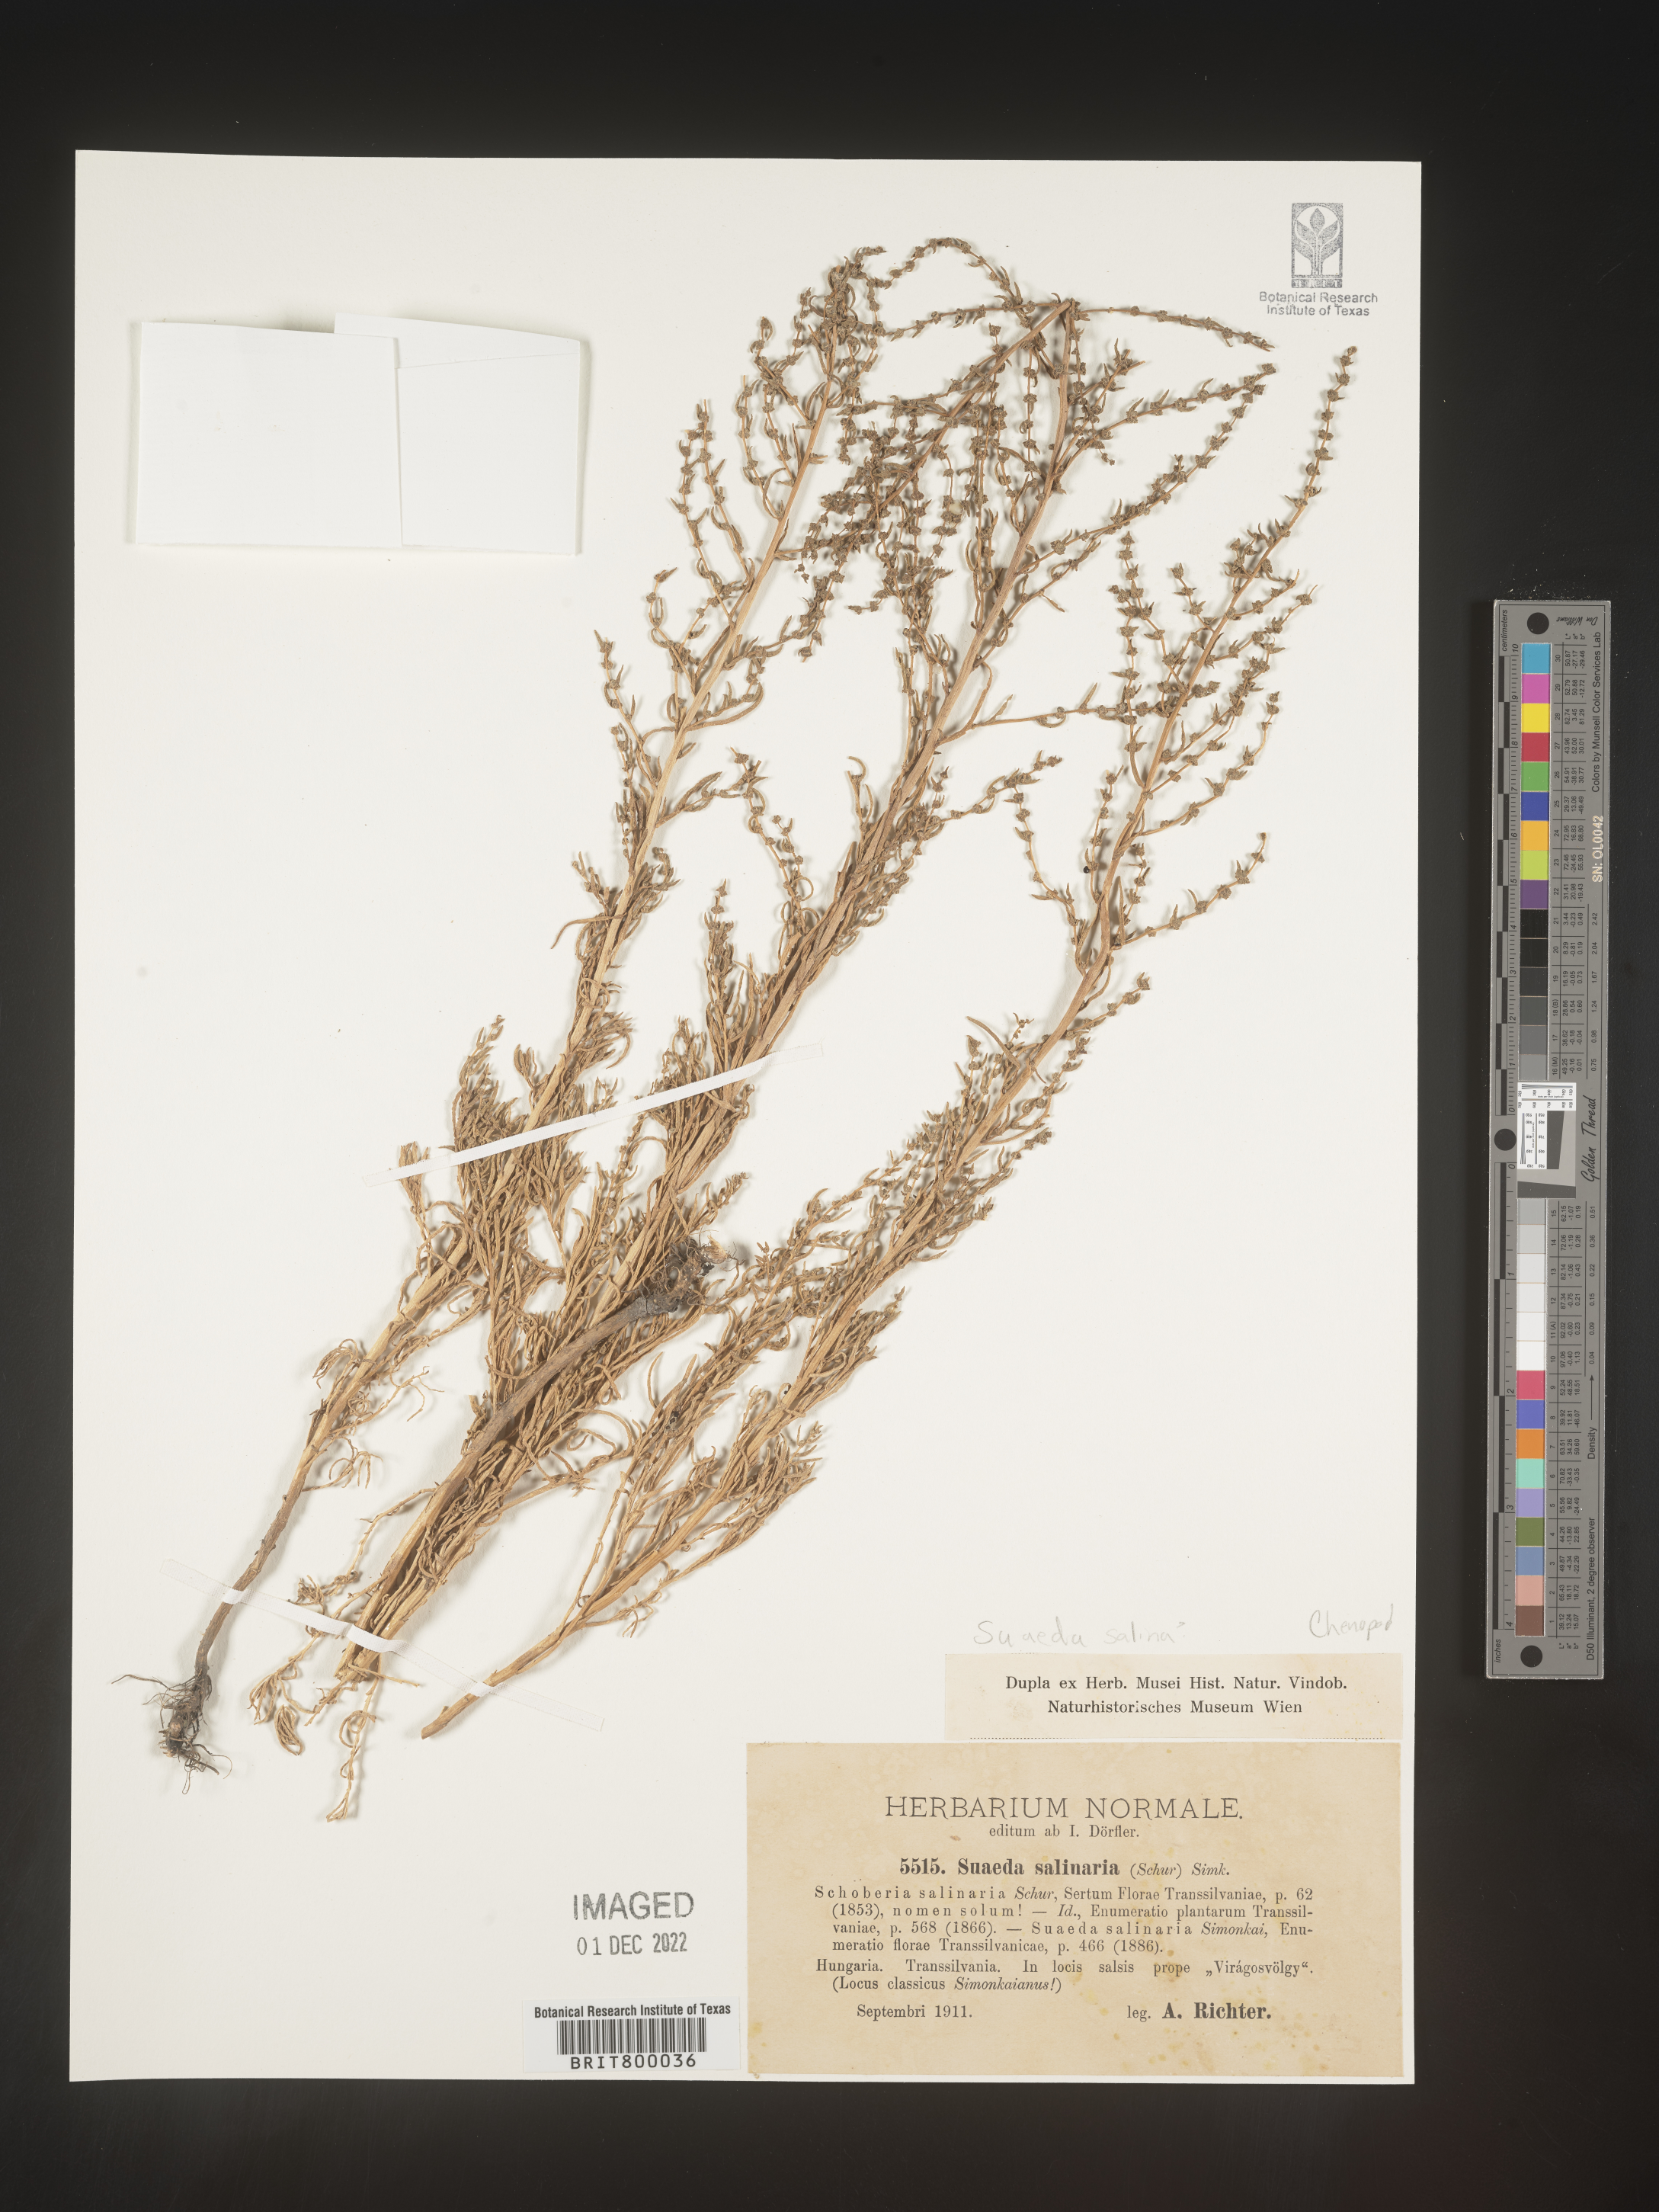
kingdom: Plantae
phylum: Tracheophyta
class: Magnoliopsida
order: Caryophyllales
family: Amaranthaceae
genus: Suaeda
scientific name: Suaeda
